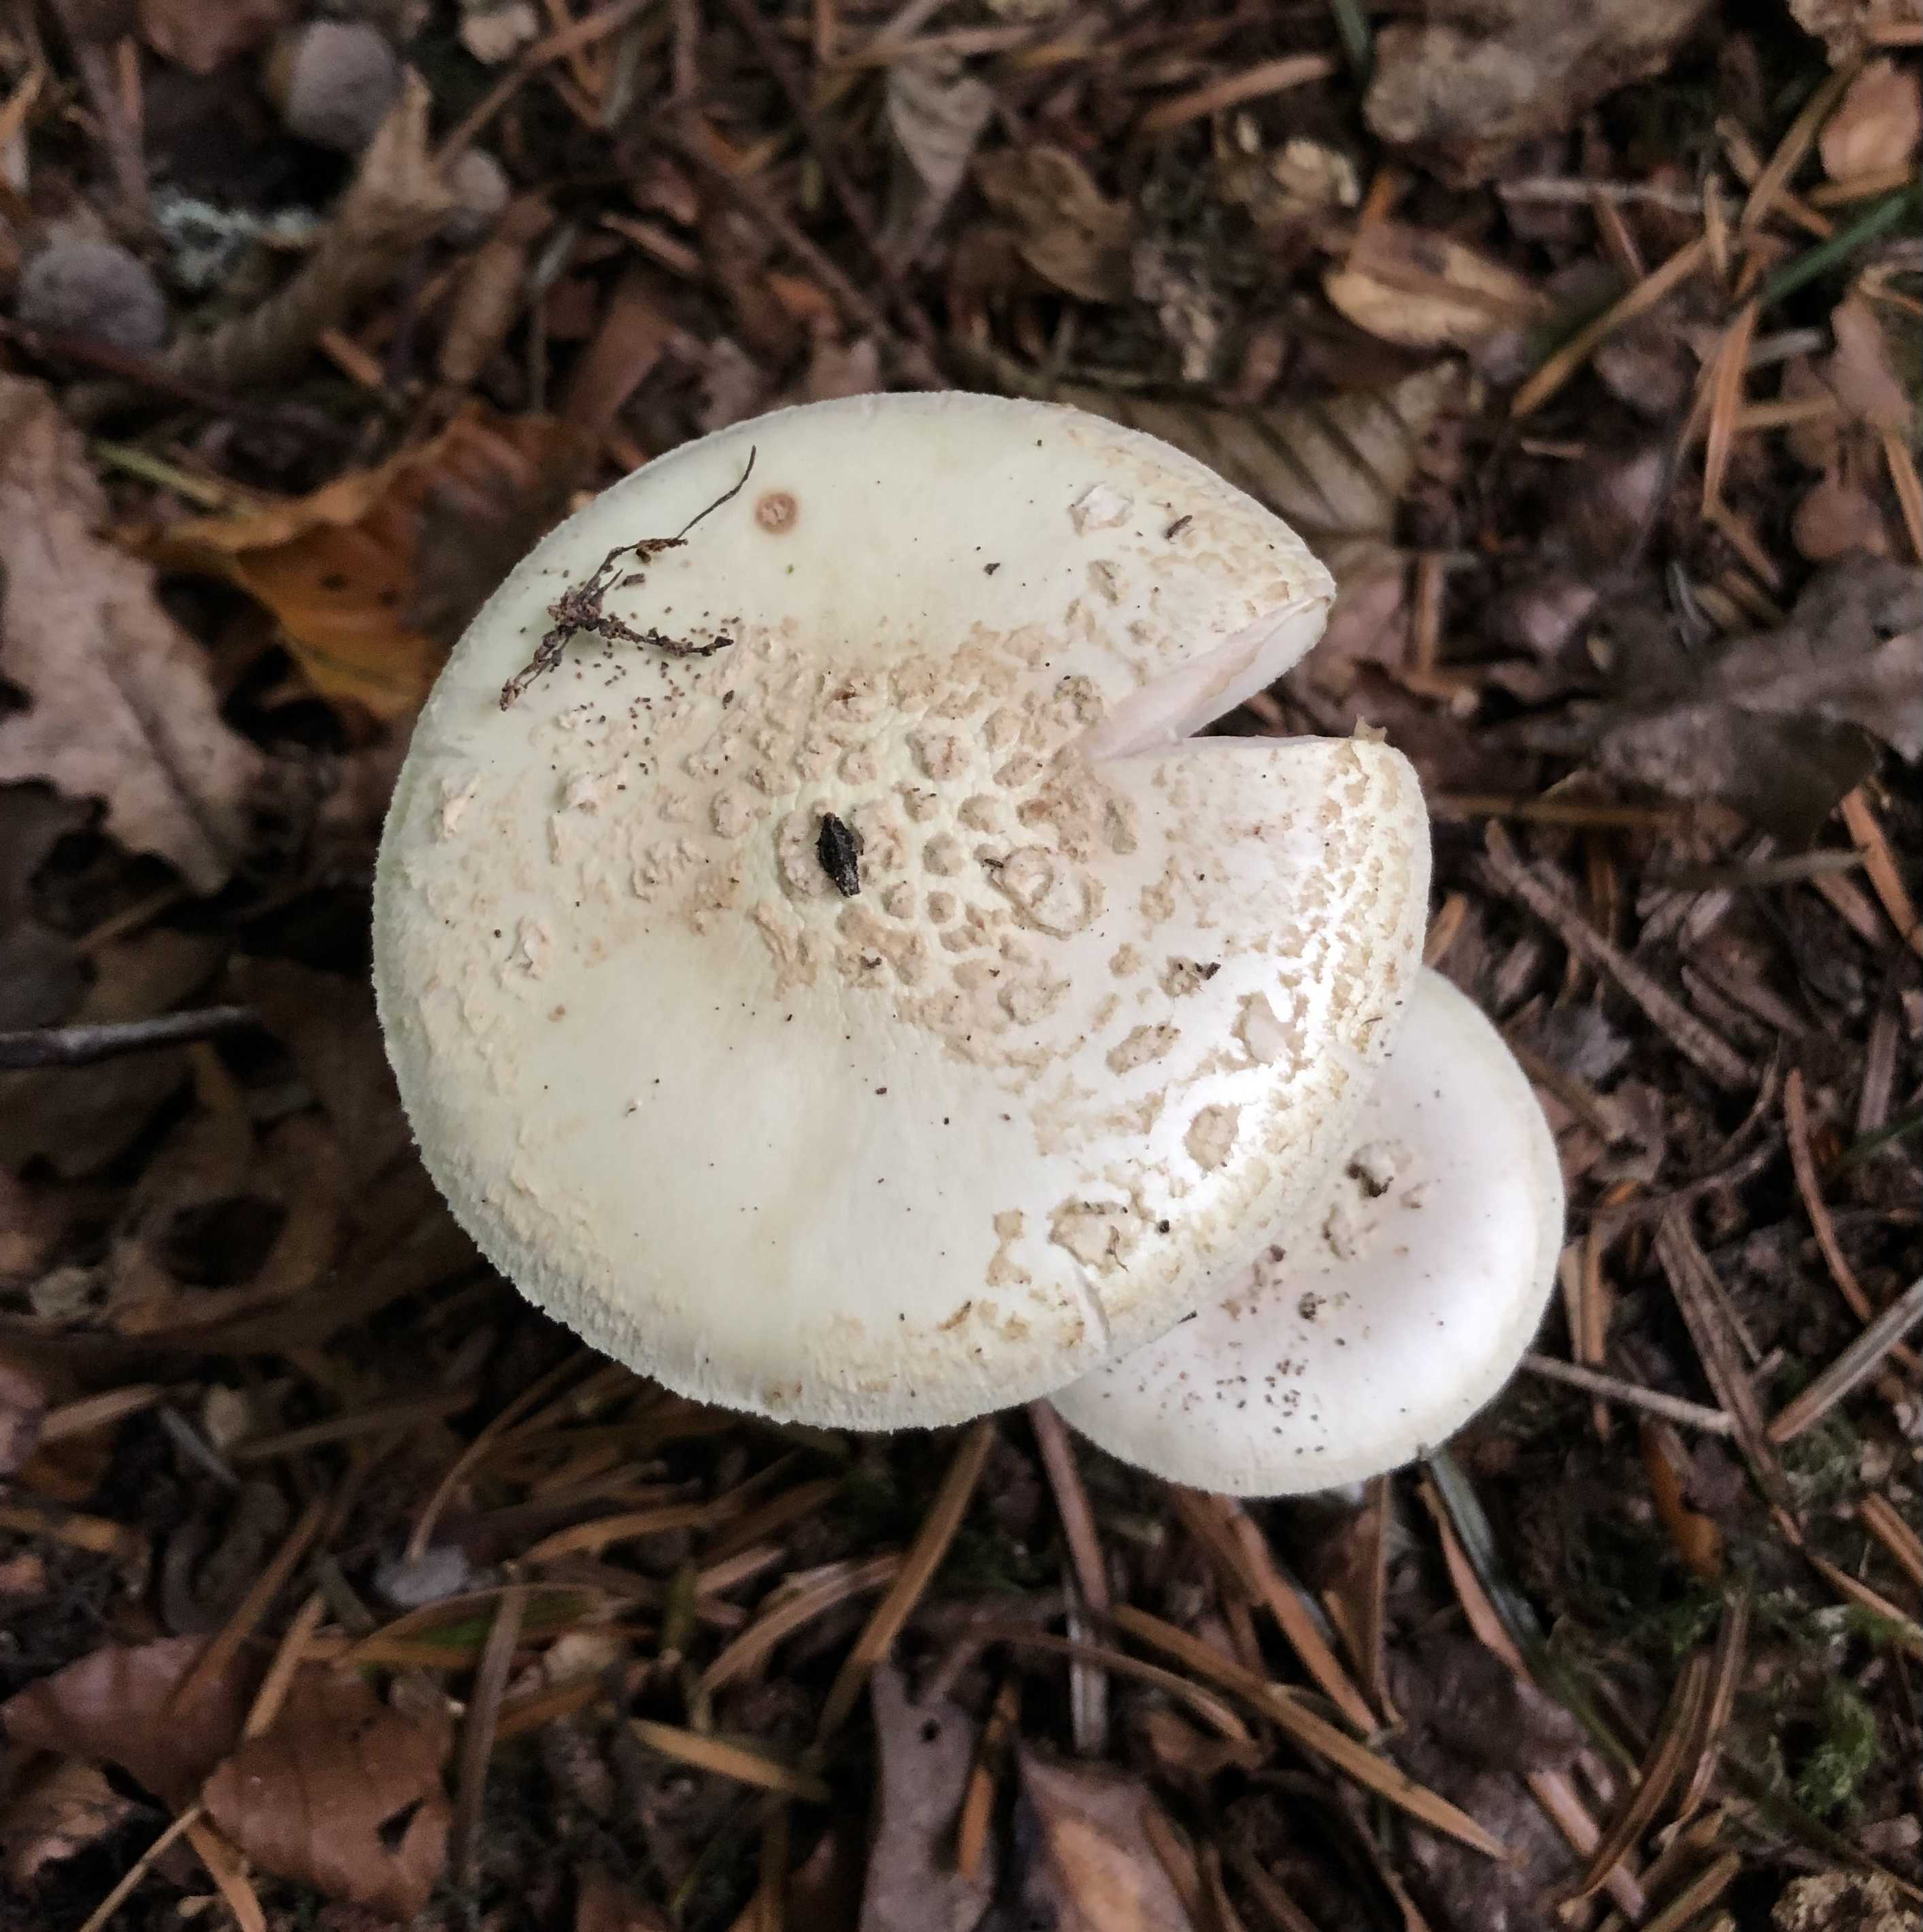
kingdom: Fungi
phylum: Basidiomycota
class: Agaricomycetes
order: Agaricales
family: Amanitaceae
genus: Amanita
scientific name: Amanita citrina
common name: kugleknoldet fluesvamp
